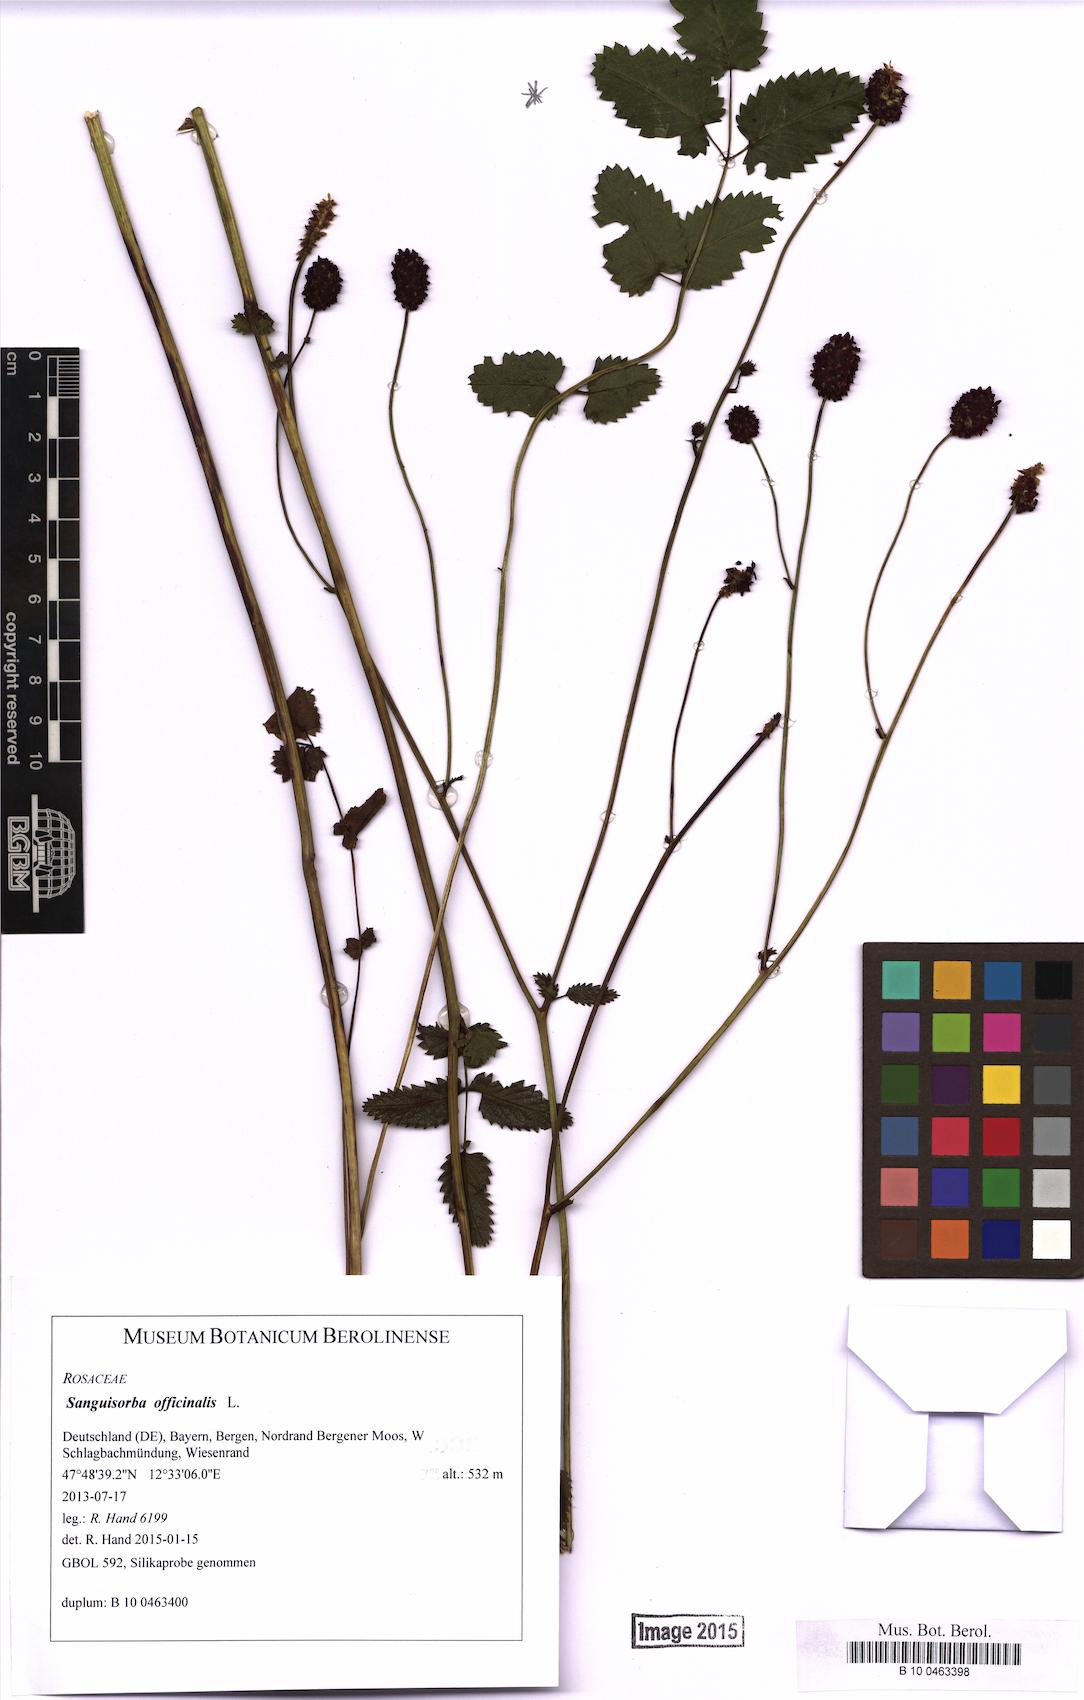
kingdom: Plantae
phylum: Tracheophyta
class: Magnoliopsida
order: Rosales
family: Rosaceae
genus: Sanguisorba
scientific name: Sanguisorba officinalis
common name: Great burnet
